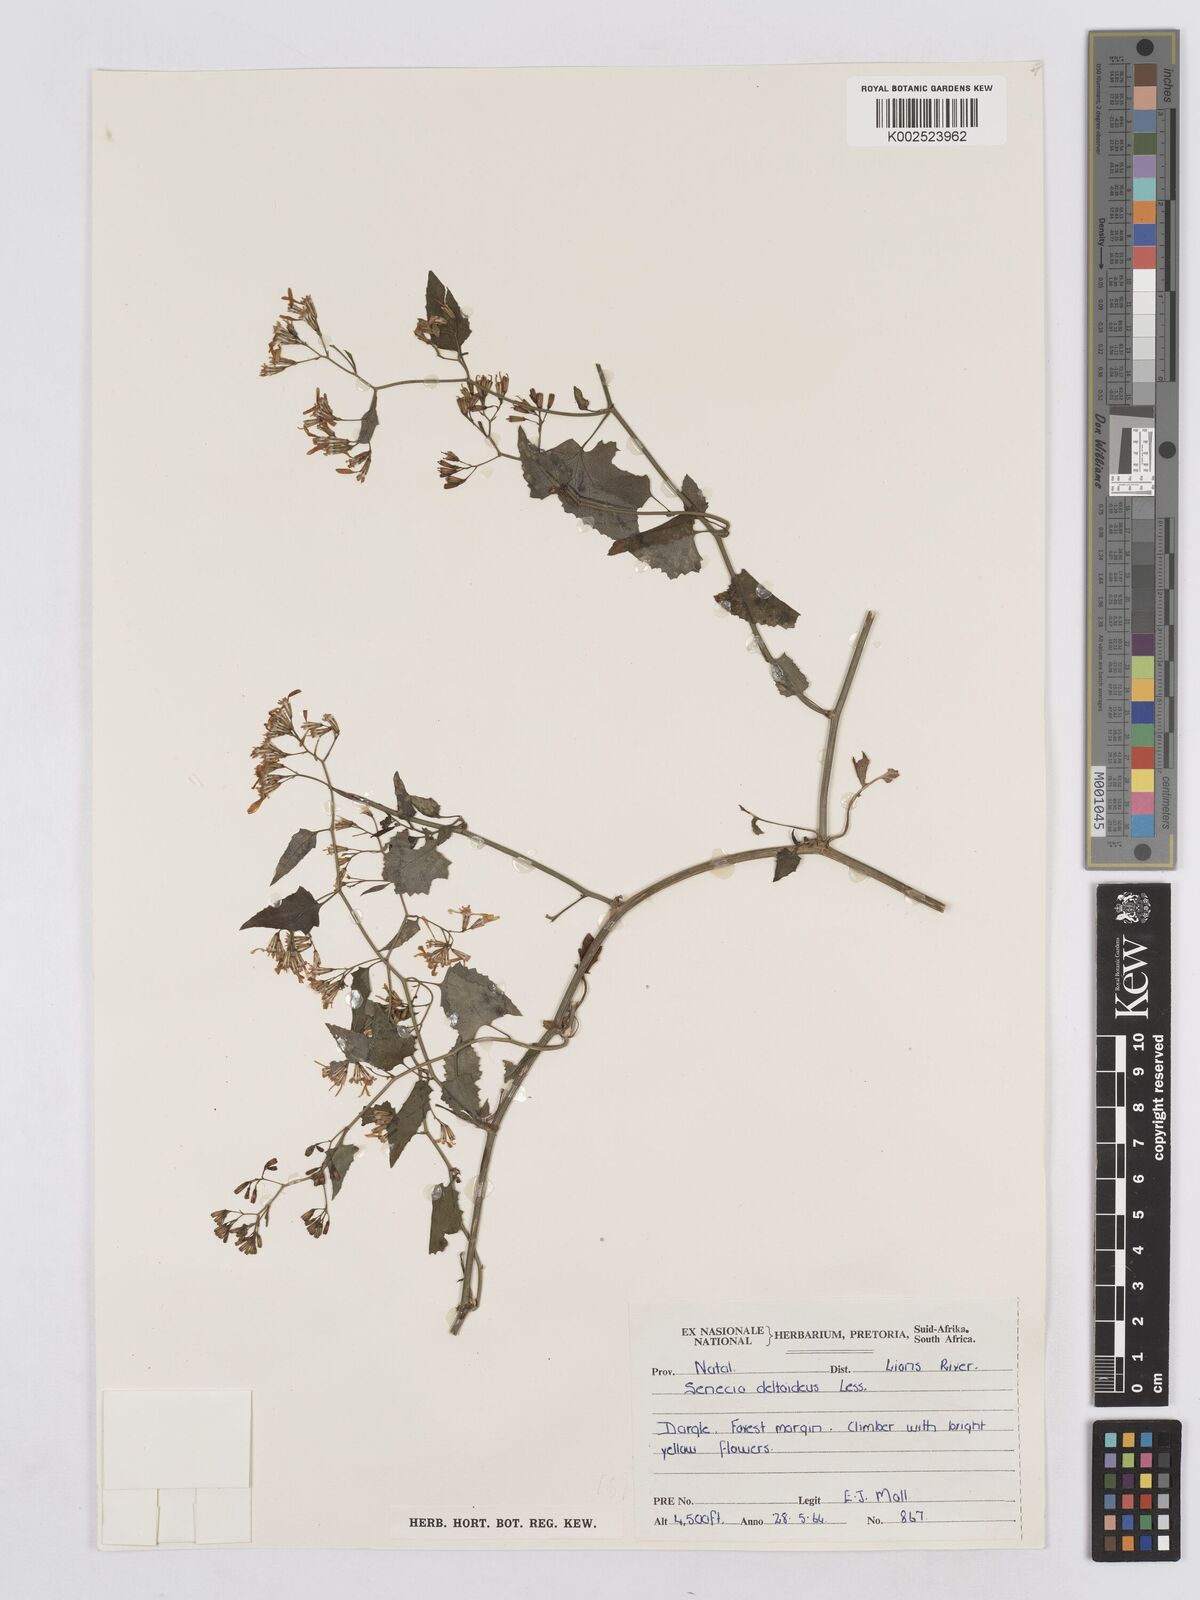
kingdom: Plantae
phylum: Tracheophyta
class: Magnoliopsida
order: Asterales
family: Asteraceae
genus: Senecio
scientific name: Senecio deltoideus
